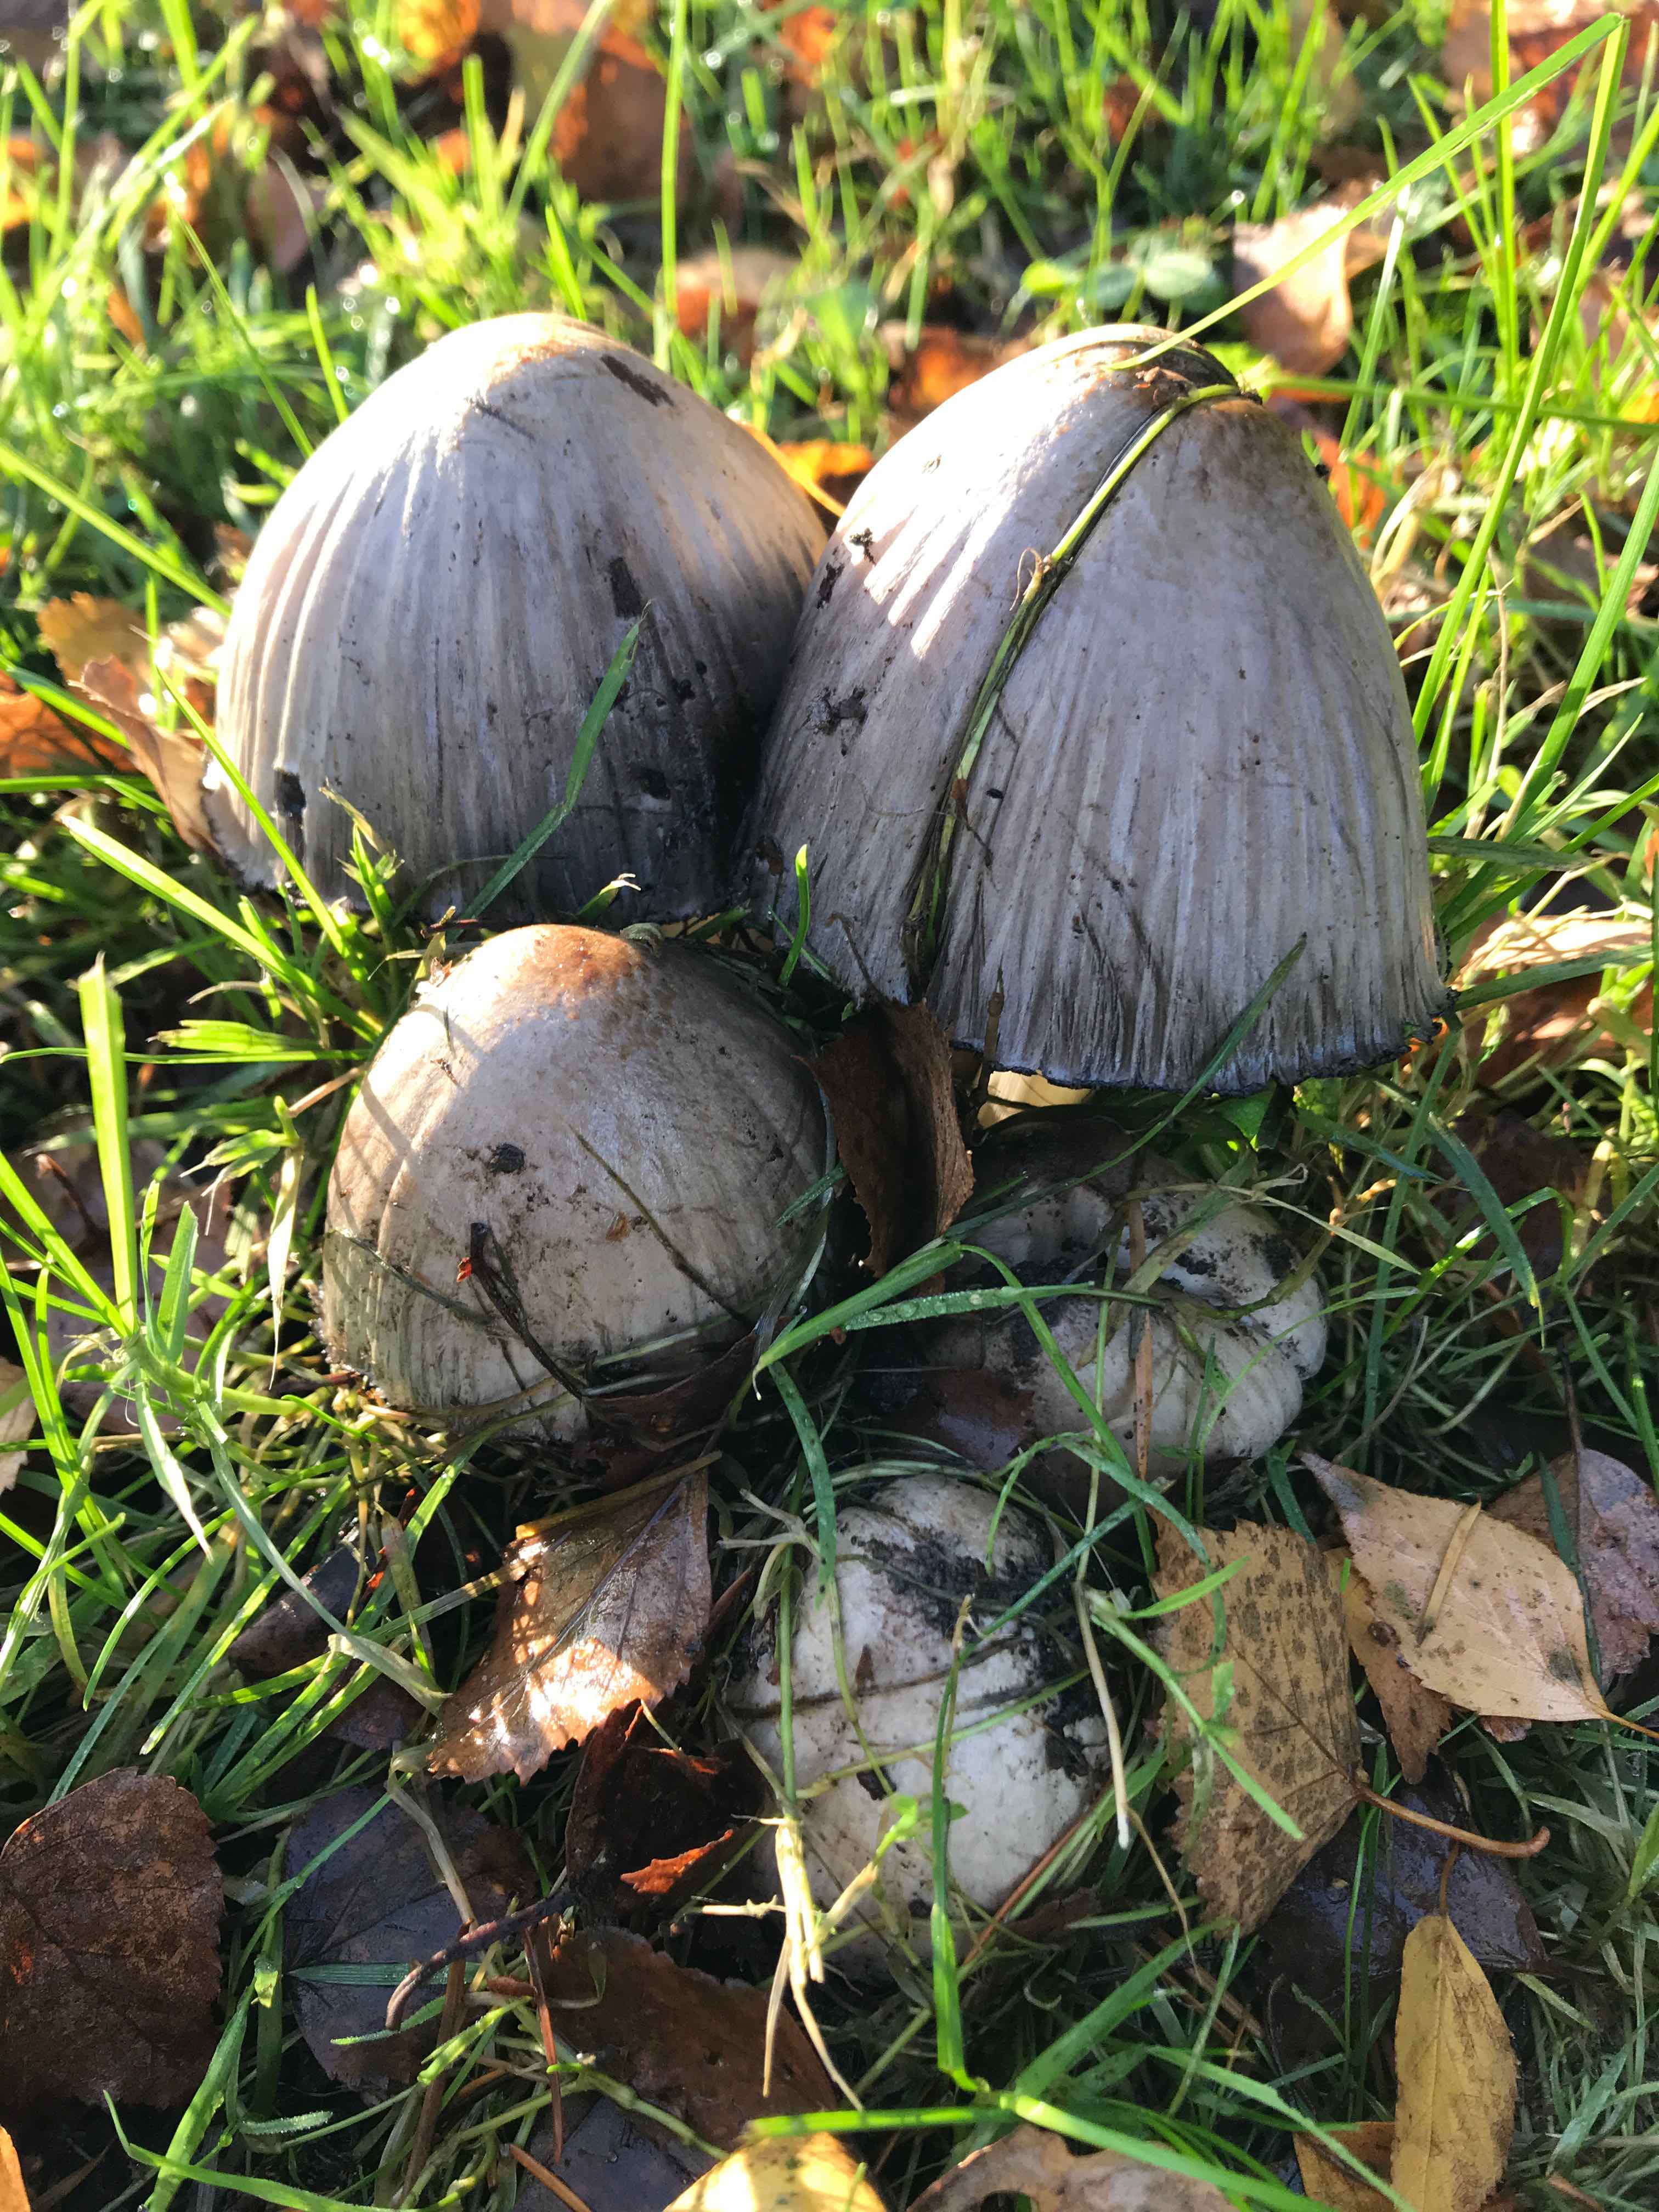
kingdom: Fungi
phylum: Basidiomycota
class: Agaricomycetes
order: Agaricales
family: Psathyrellaceae
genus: Coprinopsis
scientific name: Coprinopsis atramentaria
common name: almindelig blækhat
